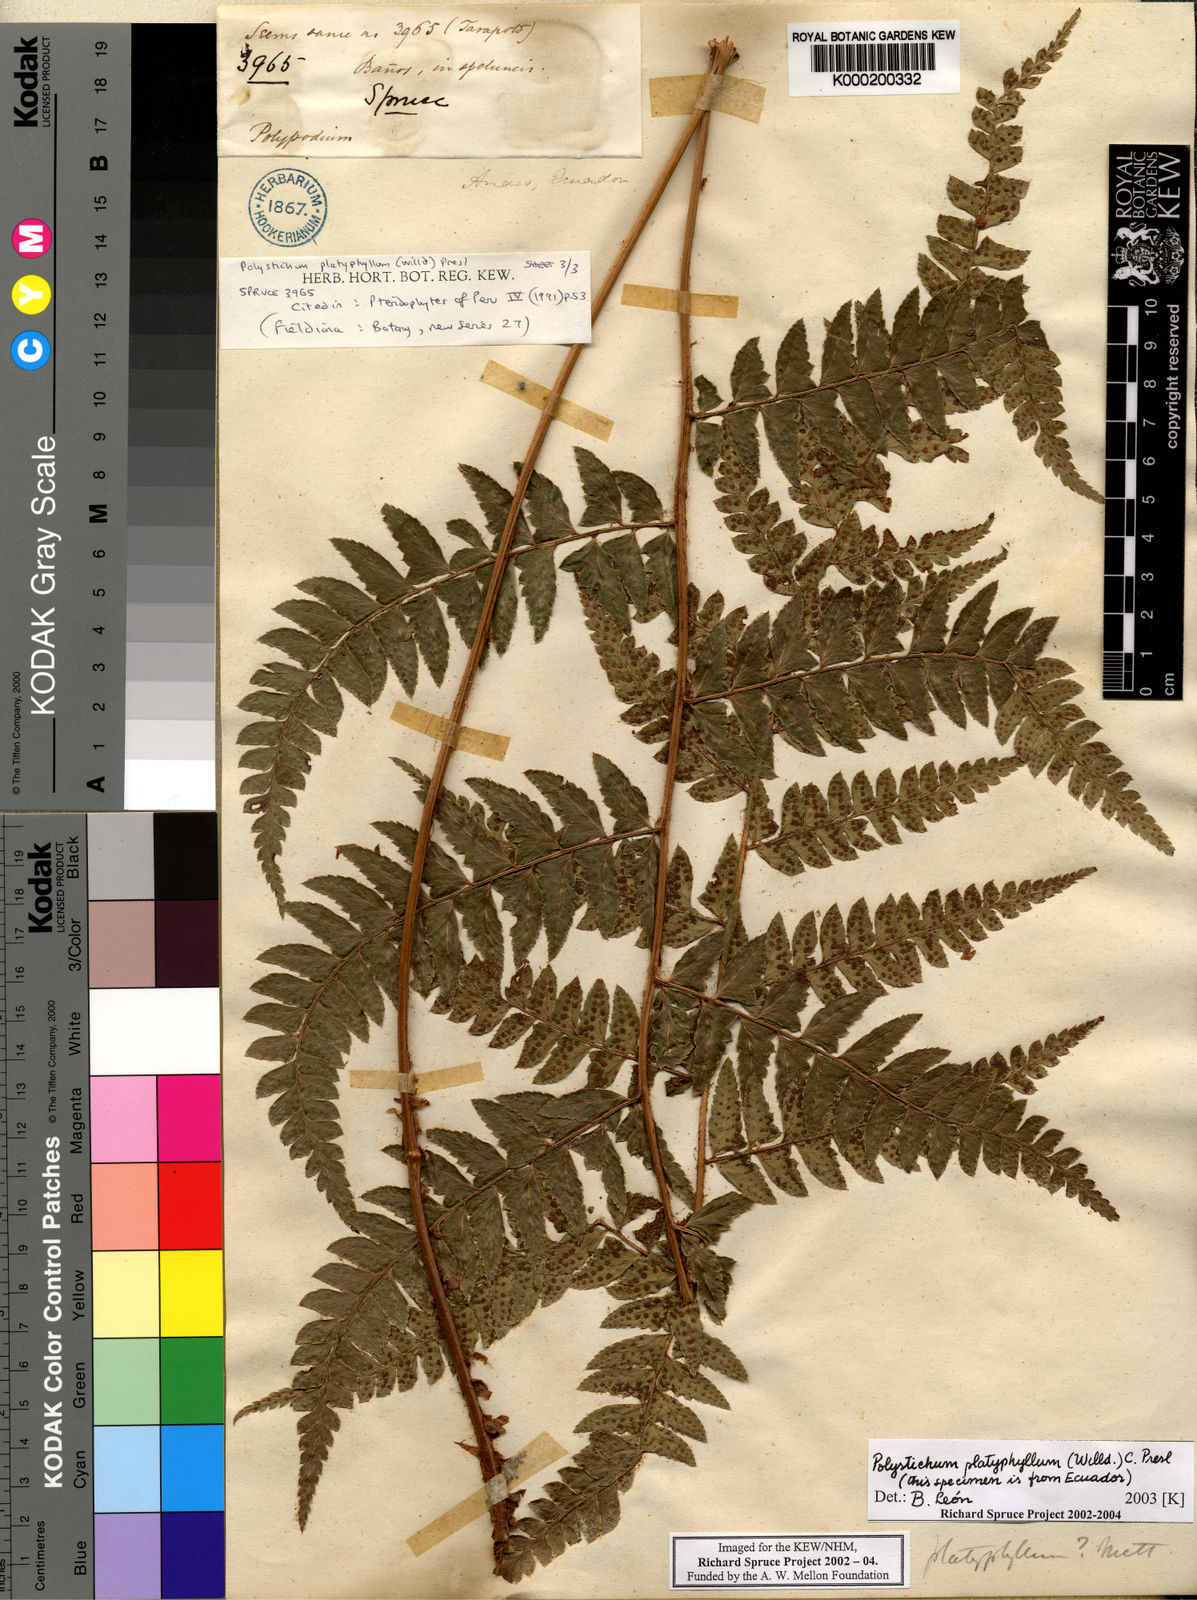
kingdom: Plantae
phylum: Tracheophyta
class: Polypodiopsida
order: Polypodiales
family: Dryopteridaceae
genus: Polystichum
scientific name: Polystichum platyphyllum
